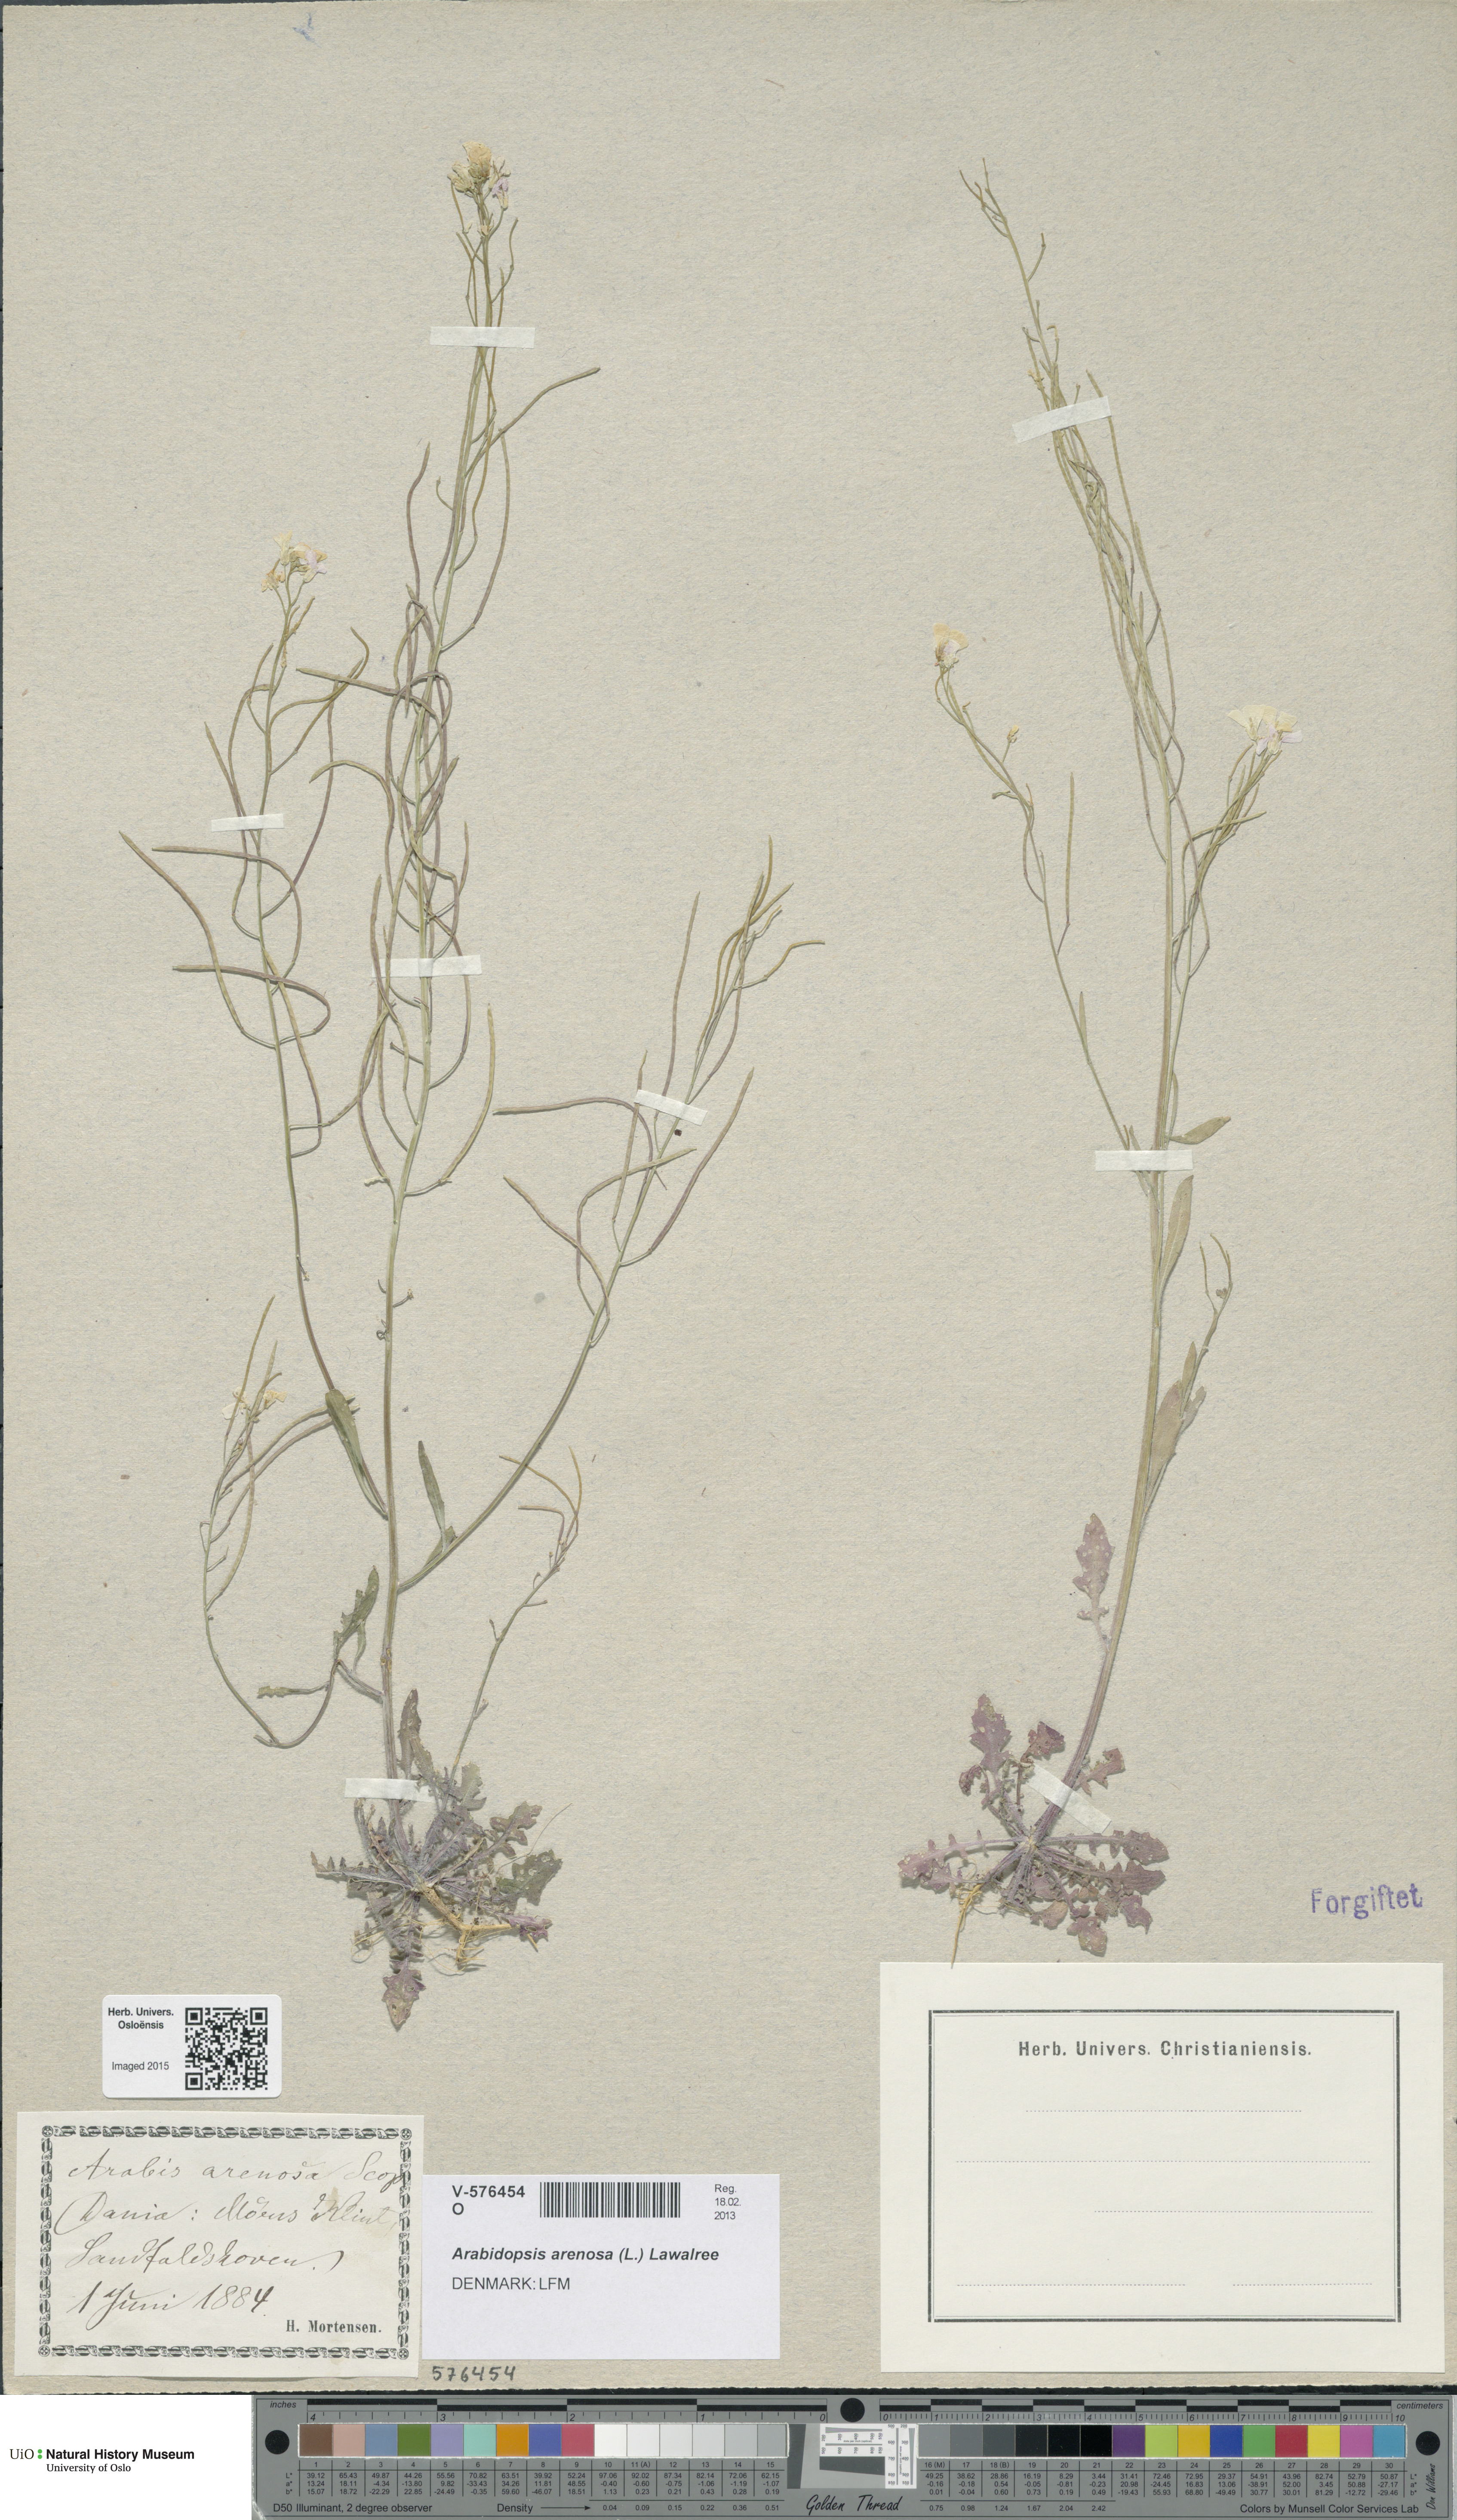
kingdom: Plantae
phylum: Tracheophyta
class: Magnoliopsida
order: Brassicales
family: Brassicaceae
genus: Arabidopsis
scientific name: Arabidopsis arenosa
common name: Sand rock-cress
